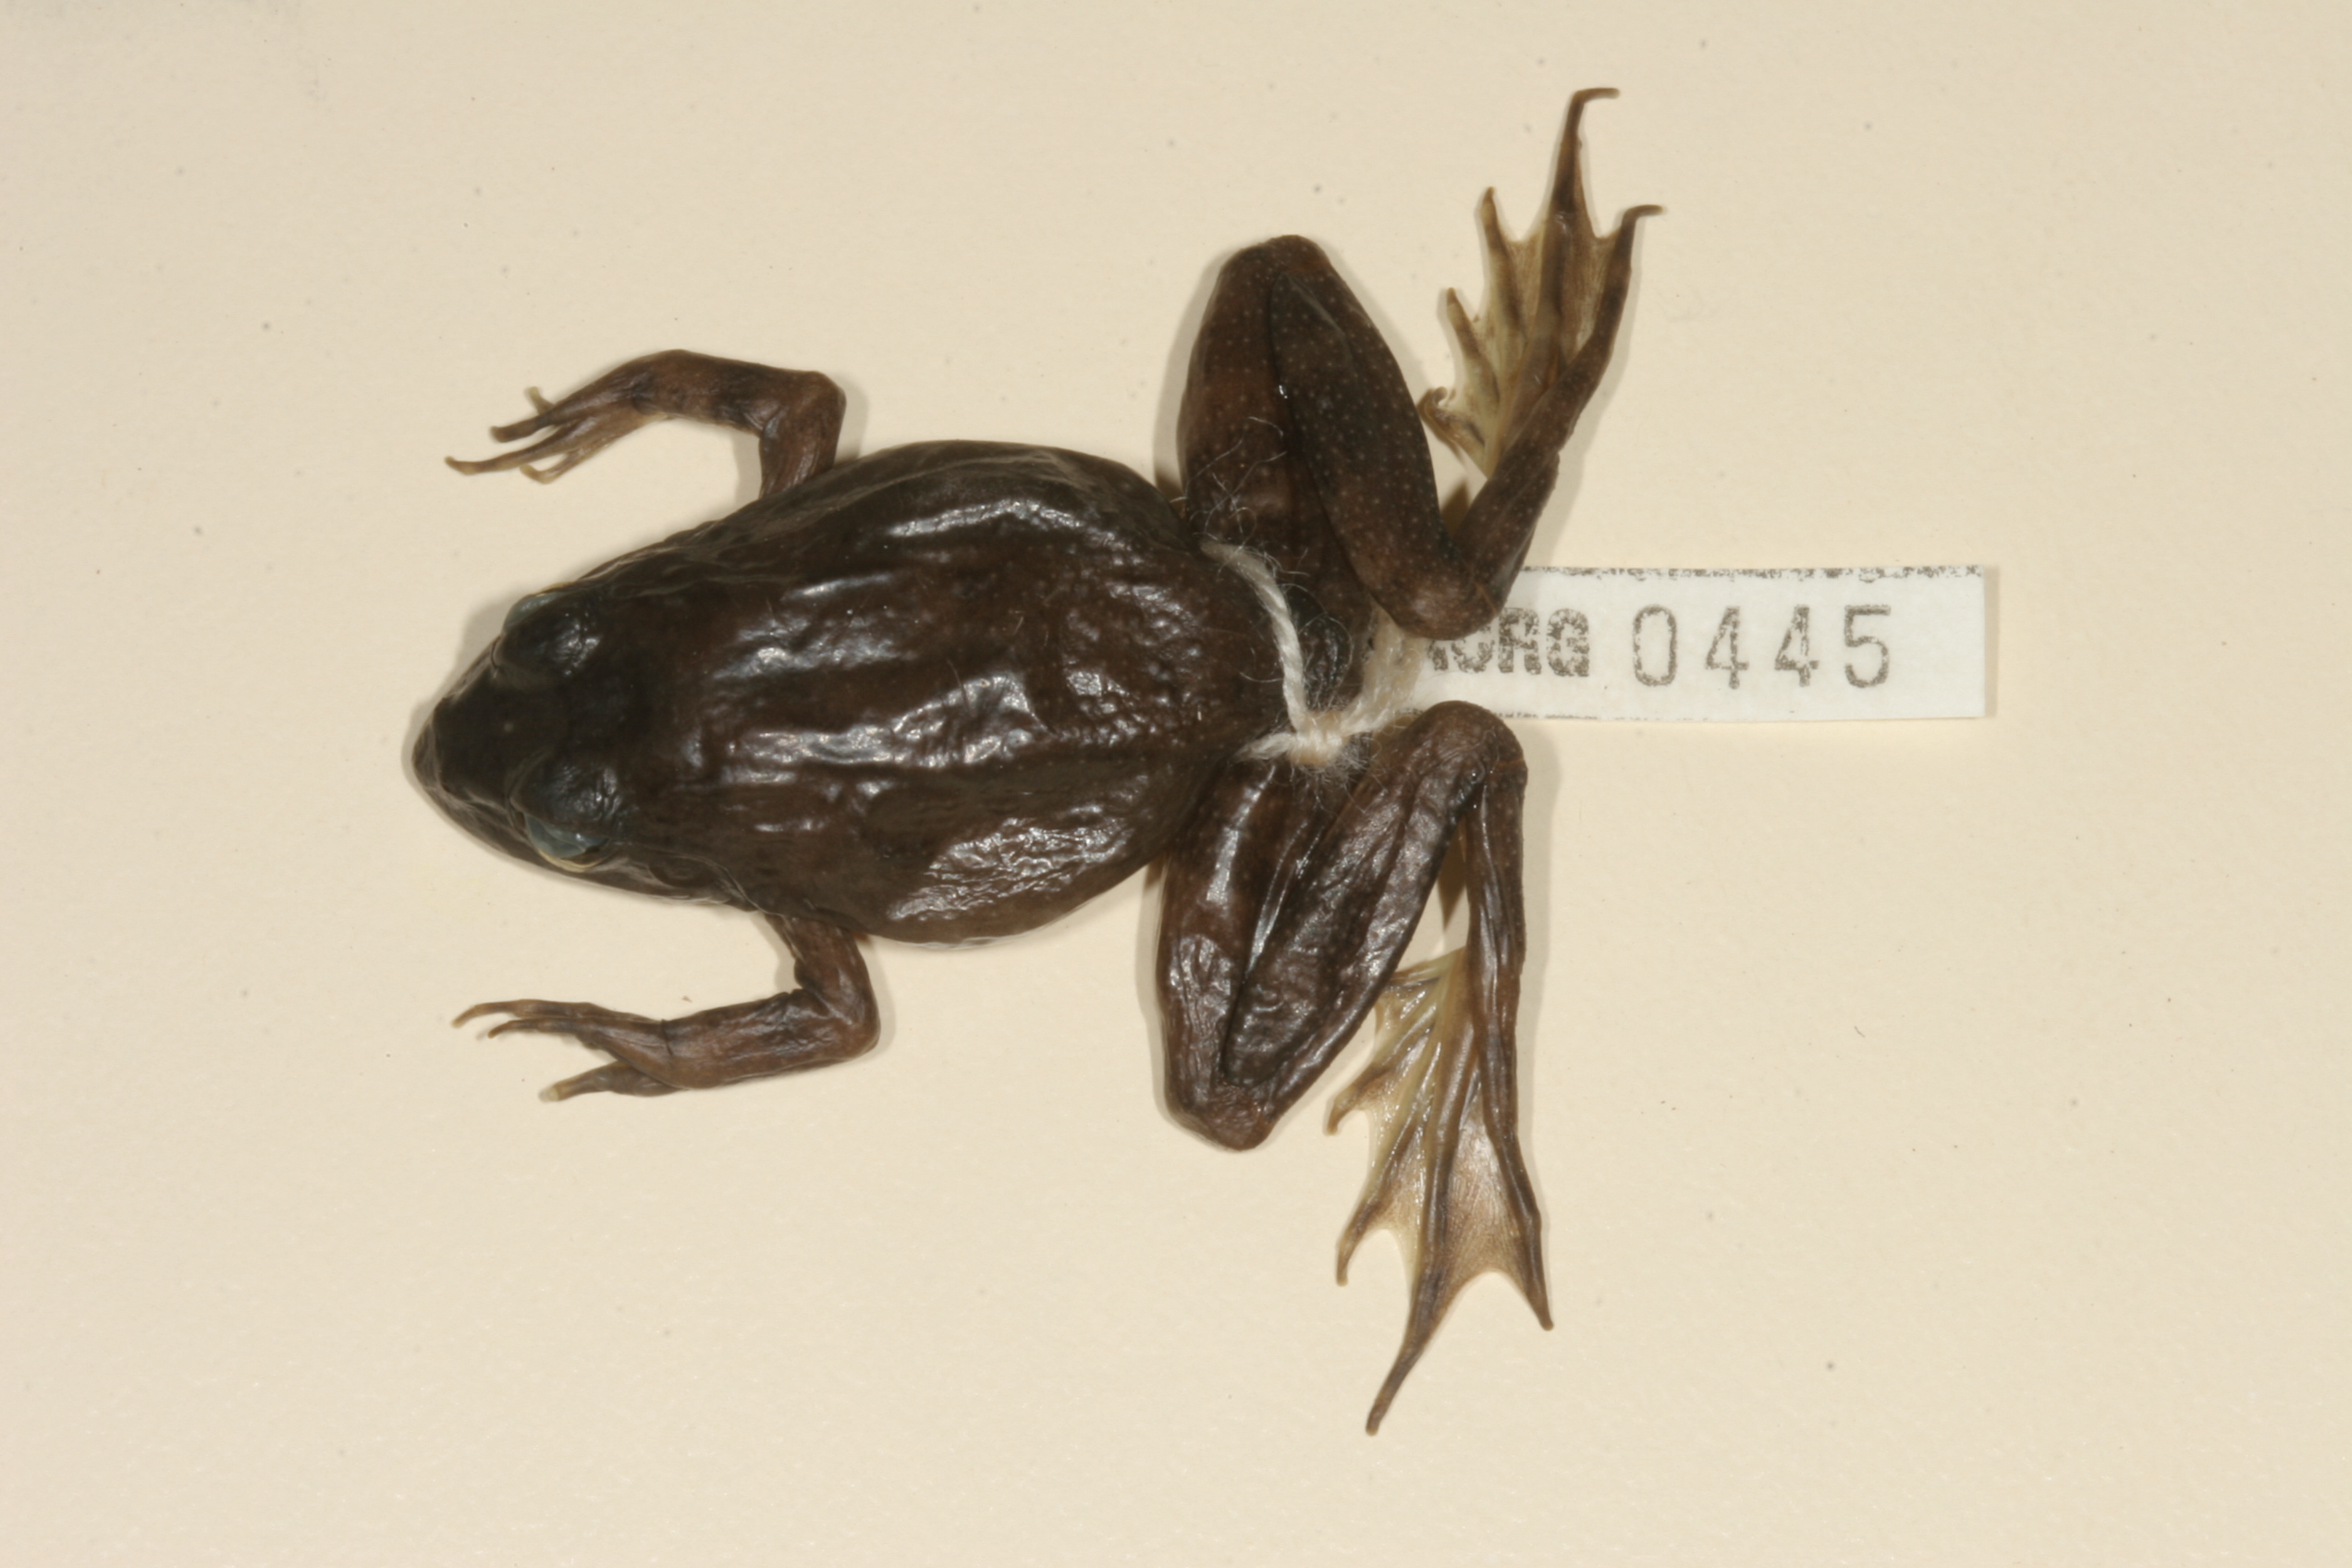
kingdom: Animalia
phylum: Chordata
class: Amphibia
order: Anura
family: Pyxicephalidae
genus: Amietia
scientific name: Amietia fuscigula
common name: Cape rana
